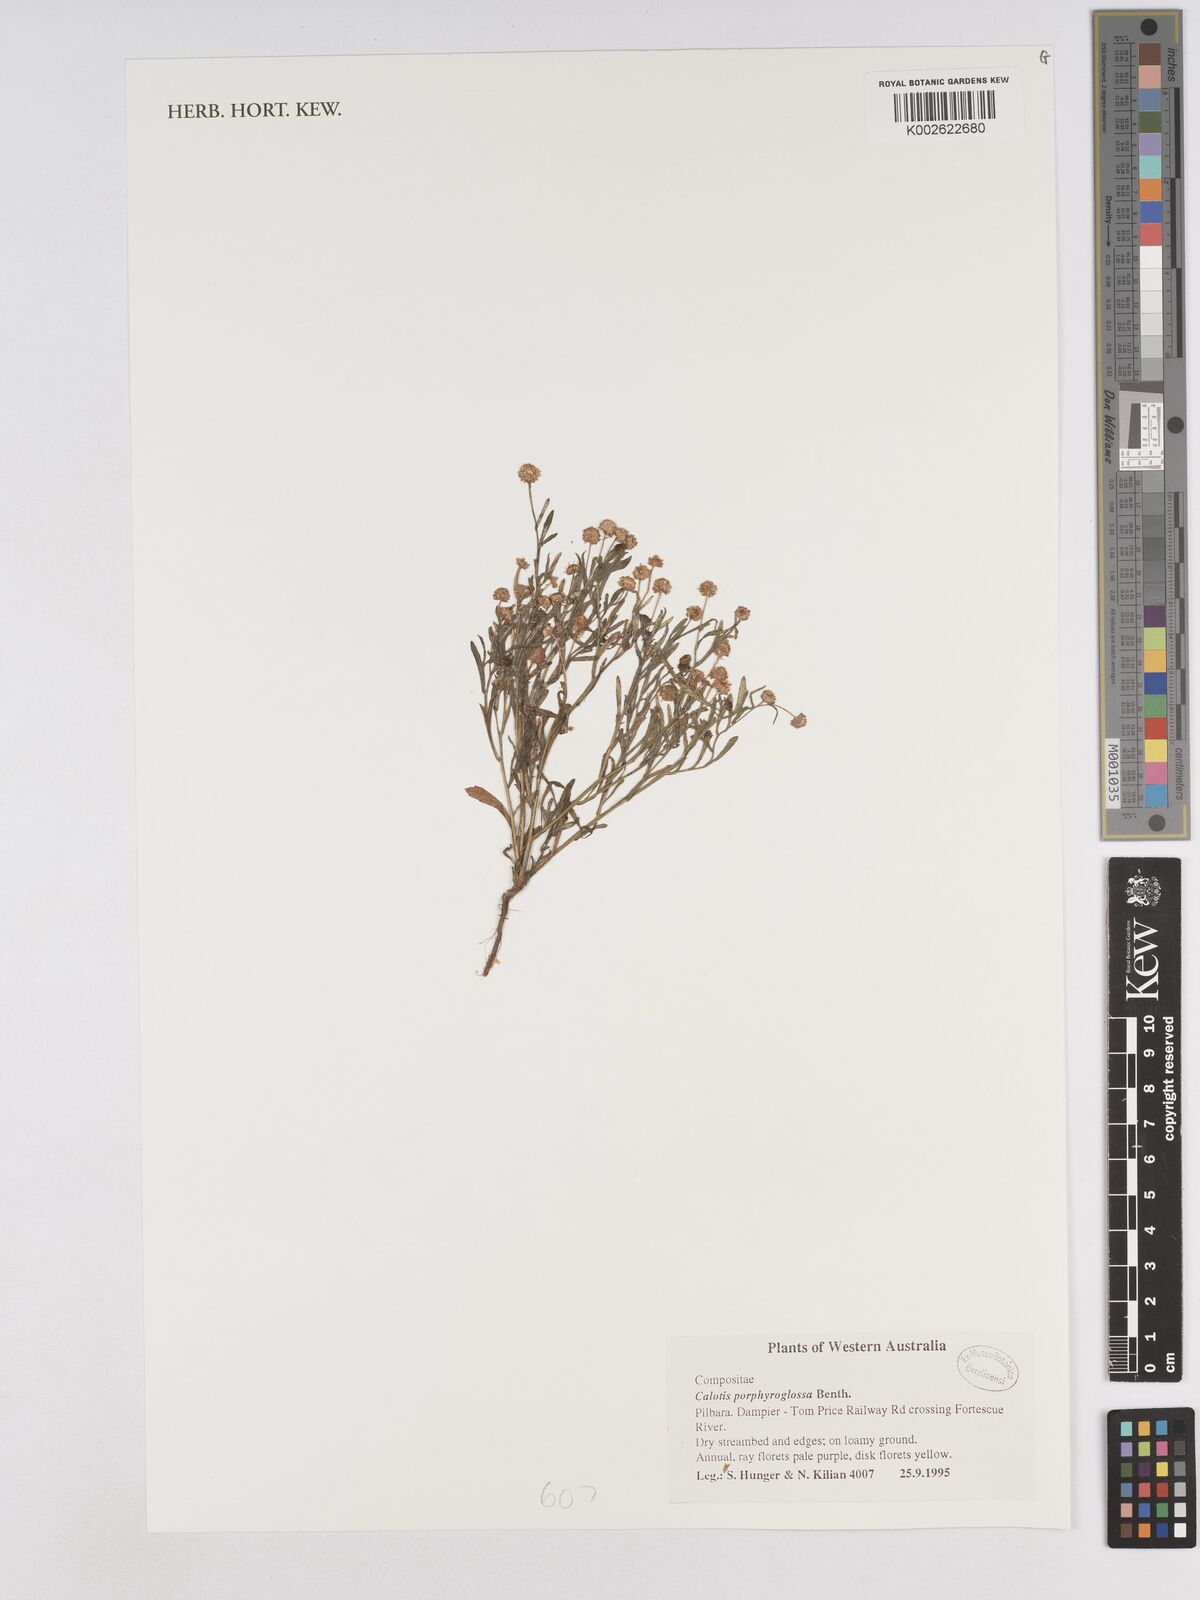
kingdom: Plantae
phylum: Tracheophyta
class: Magnoliopsida
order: Asterales
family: Asteraceae
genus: Calotis
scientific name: Calotis porphyroglossa
